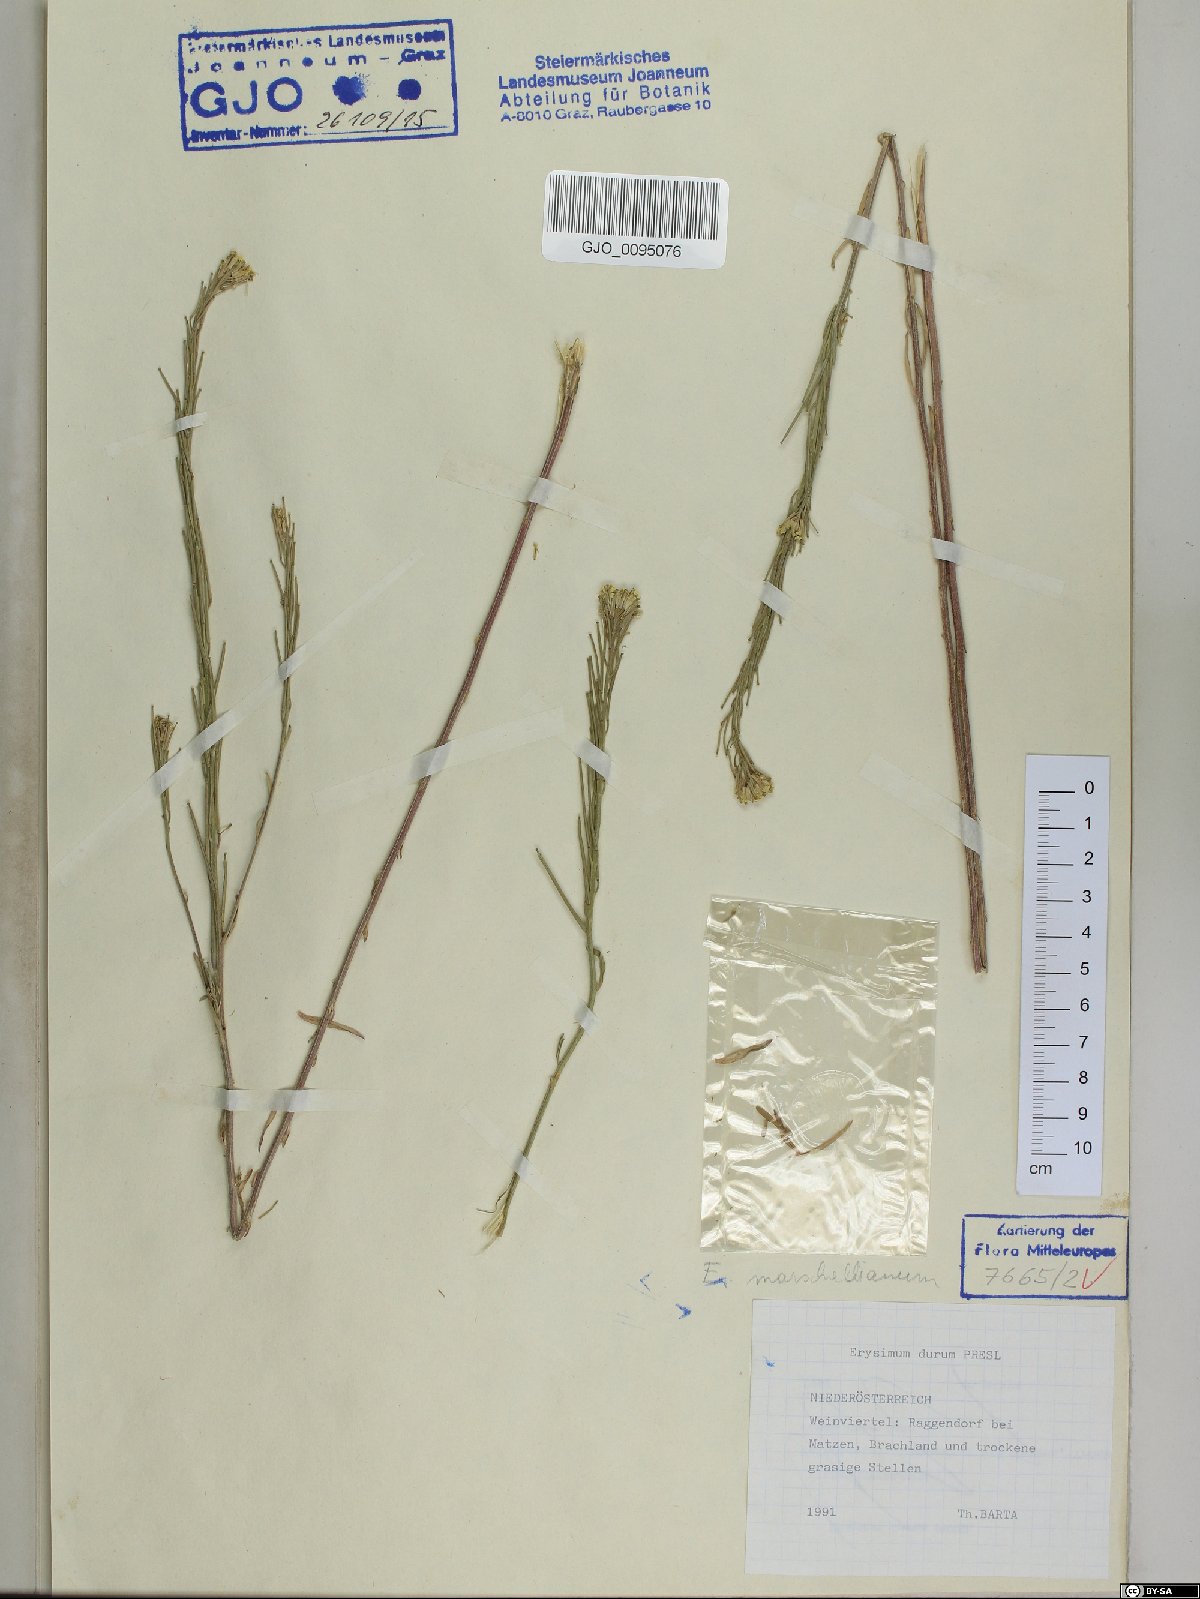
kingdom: Plantae
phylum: Tracheophyta
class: Magnoliopsida
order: Brassicales
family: Brassicaceae
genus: Erysimum
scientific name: Erysimum marschallianum
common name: Hard wallflower
